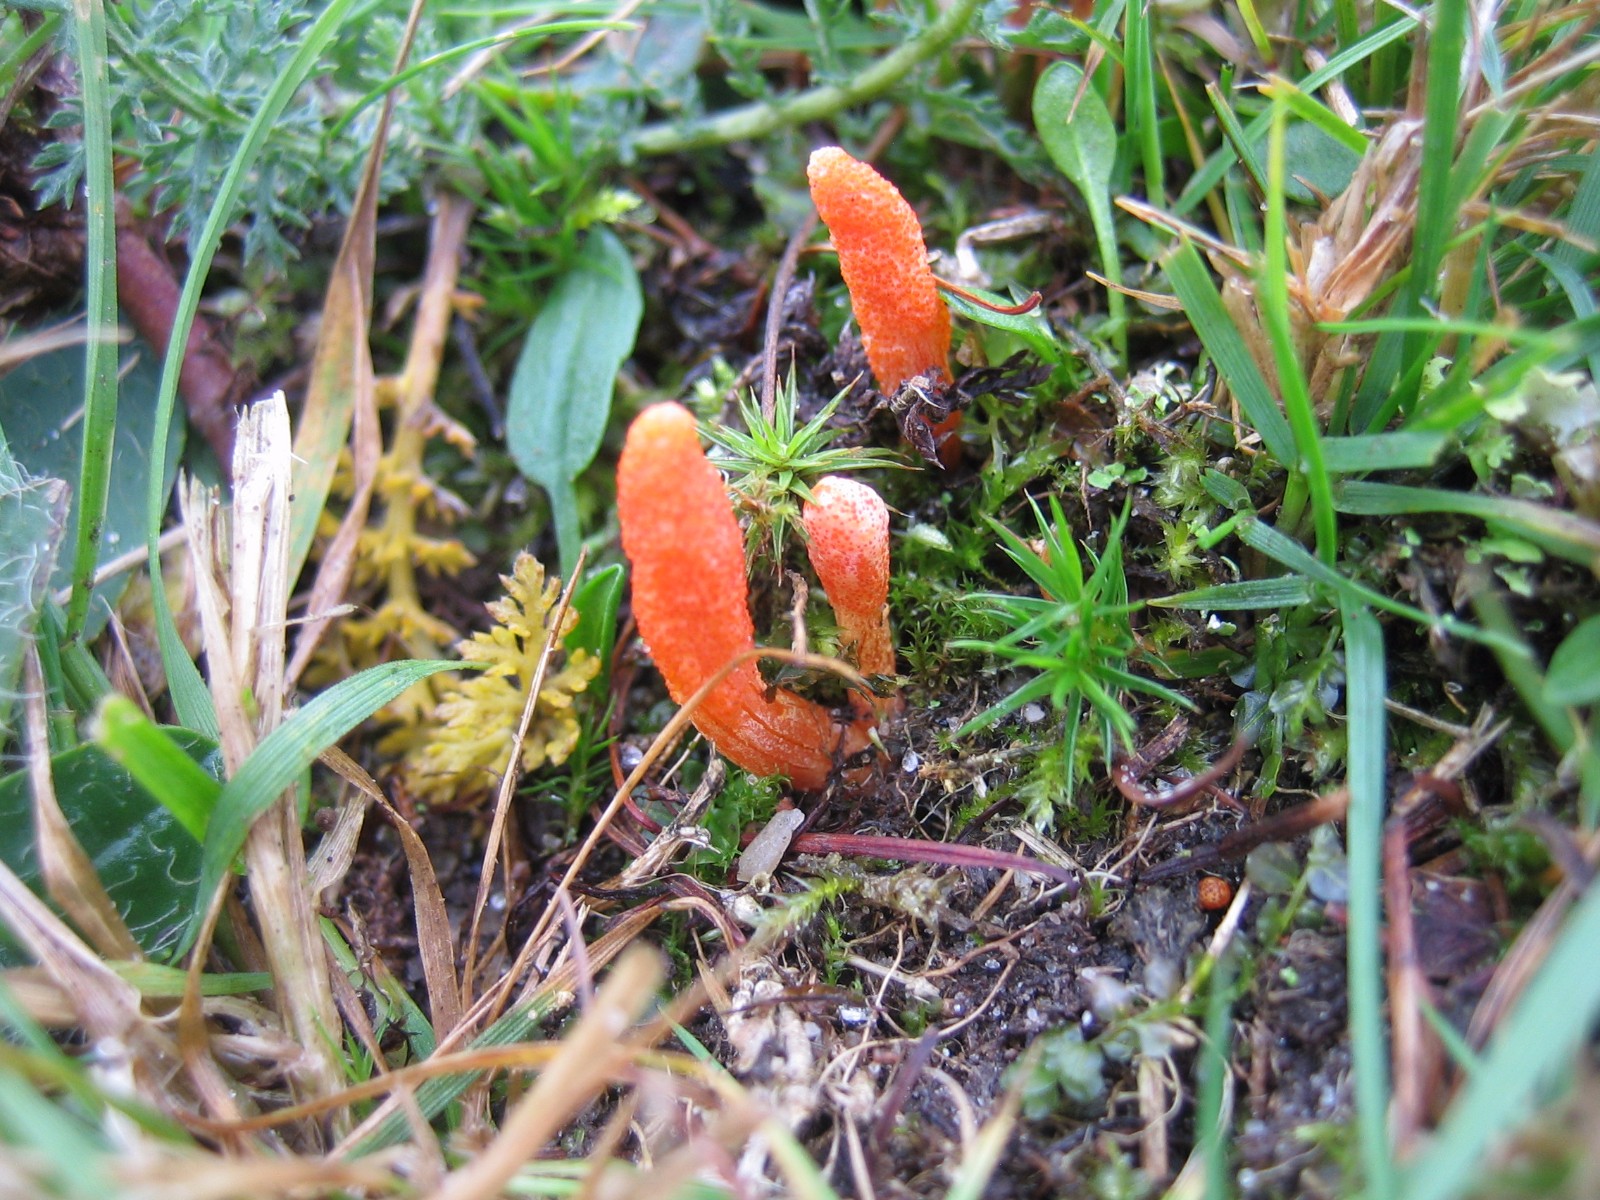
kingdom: Fungi
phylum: Ascomycota
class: Sordariomycetes
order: Hypocreales
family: Cordycipitaceae
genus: Cordyceps
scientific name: Cordyceps militaris
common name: puppe-snyltekølle
